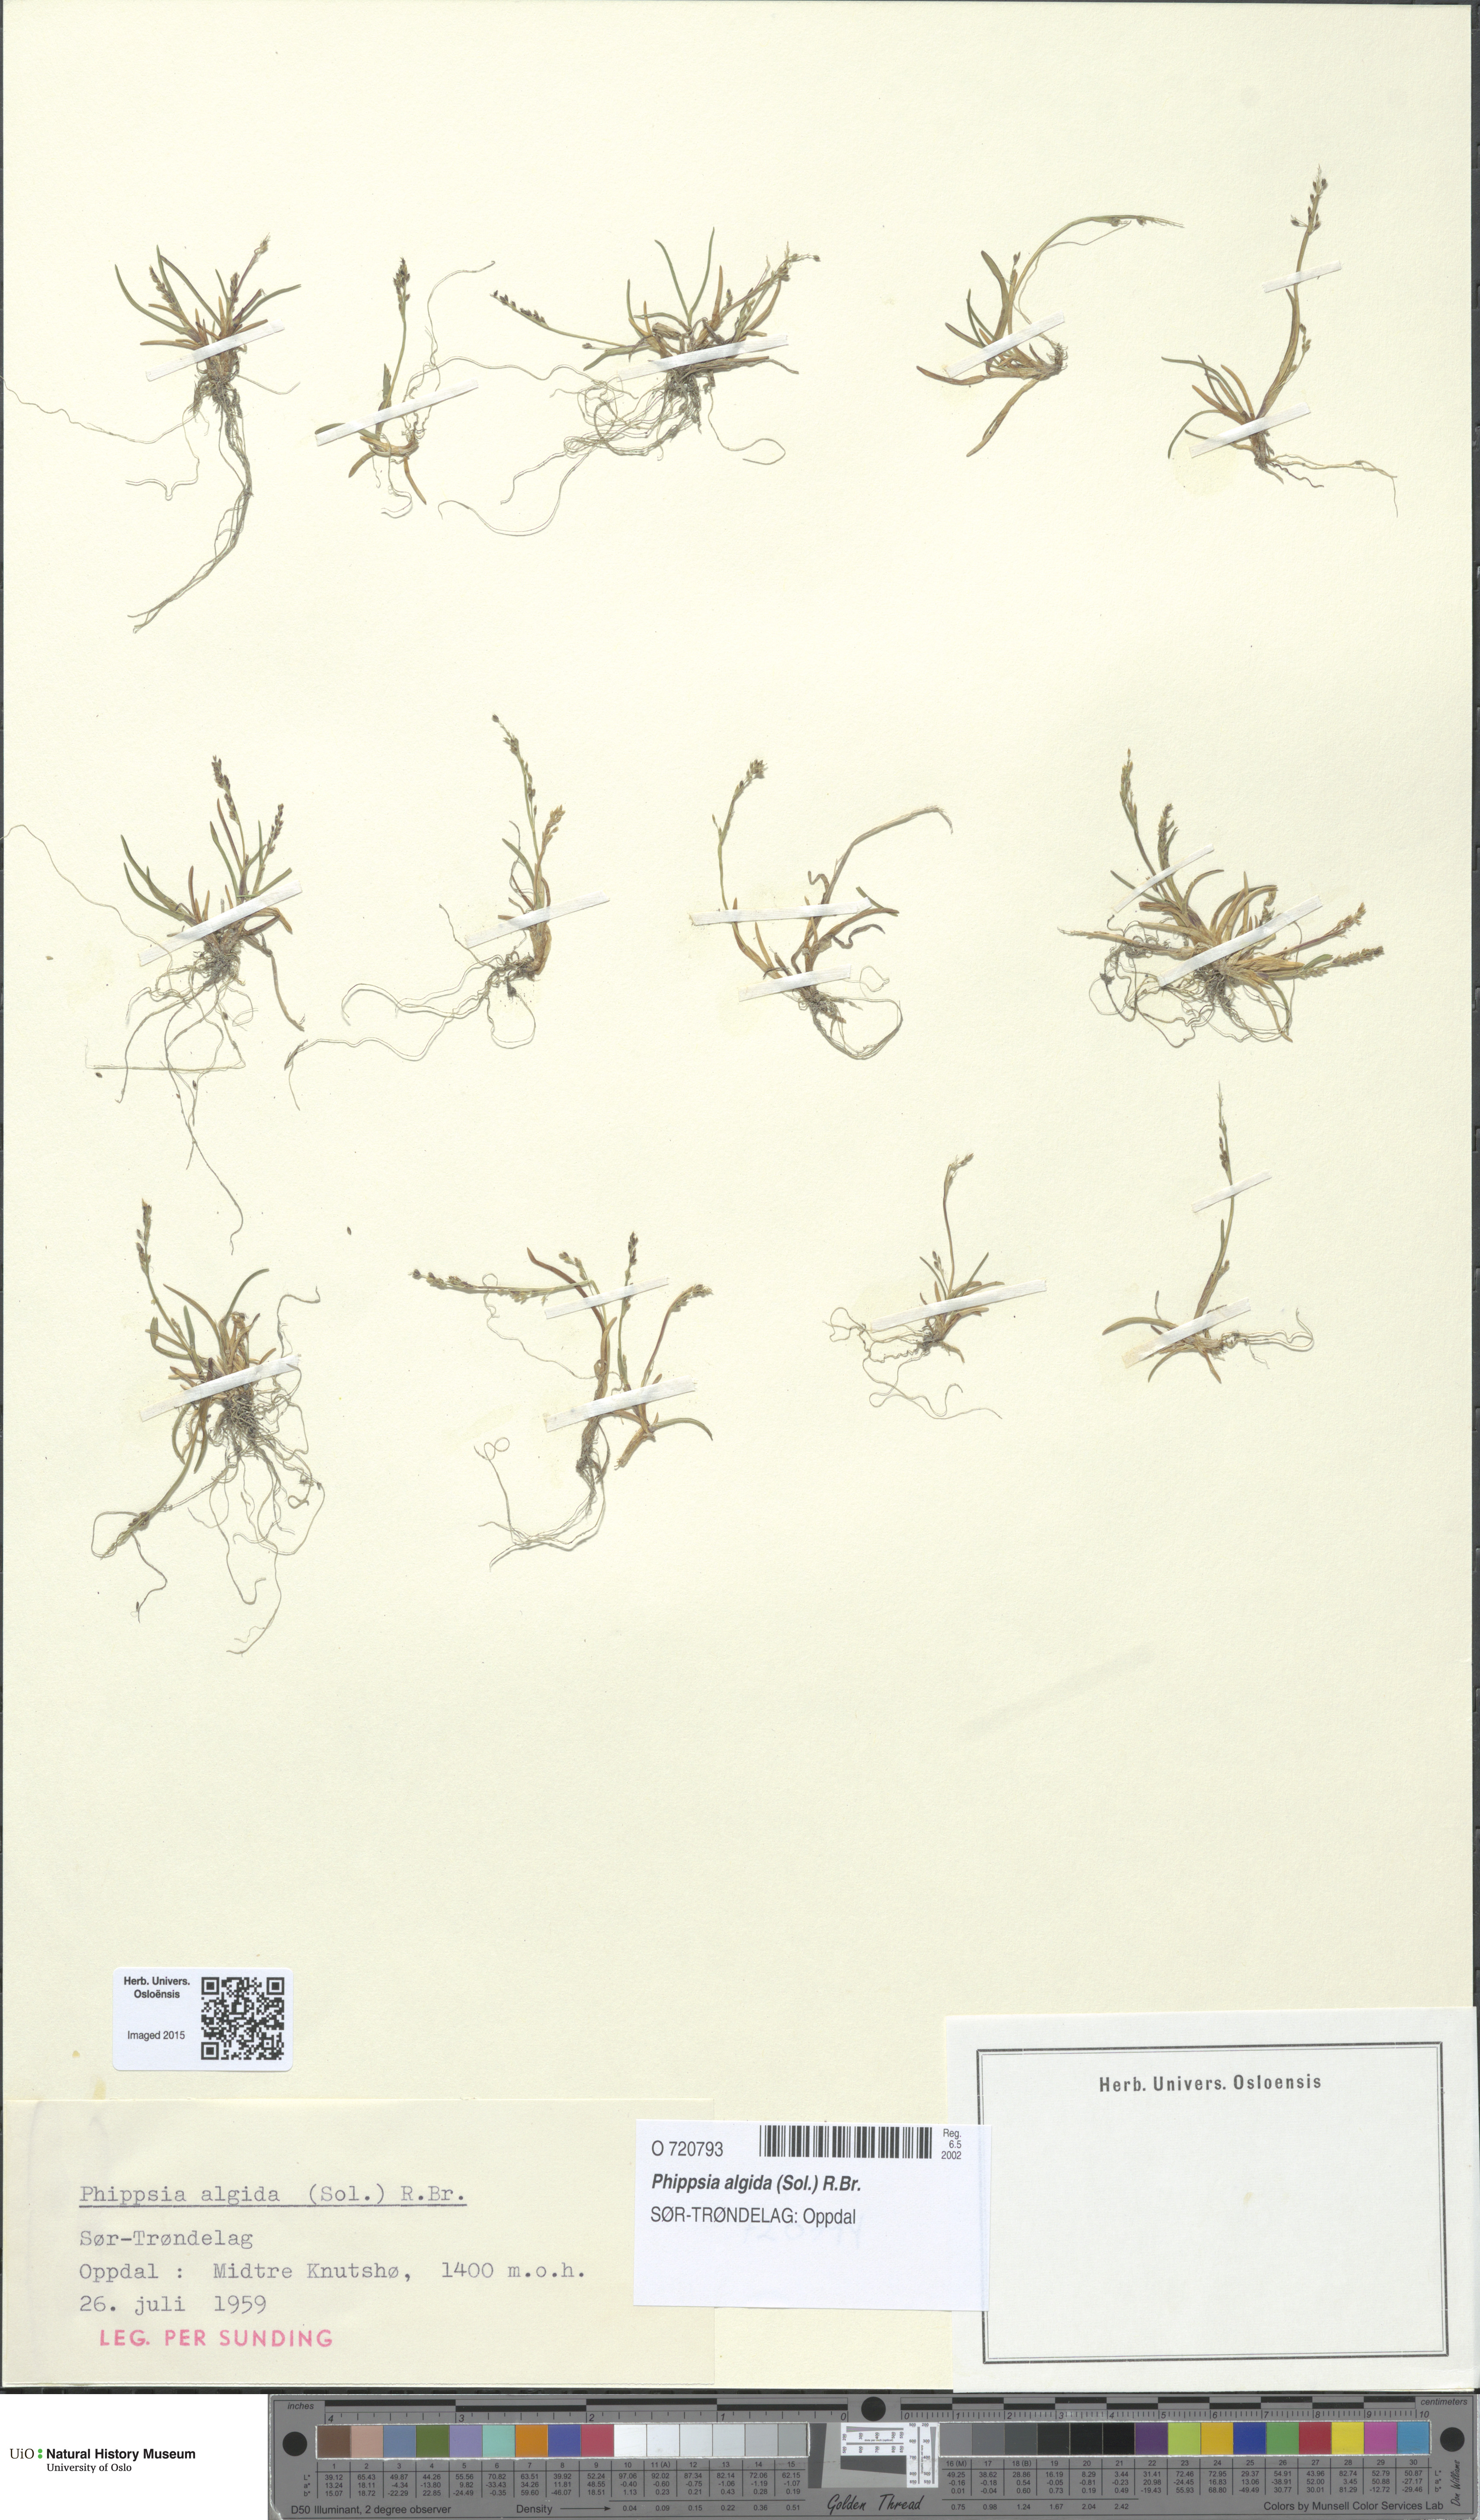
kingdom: Plantae
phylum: Tracheophyta
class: Liliopsida
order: Poales
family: Poaceae
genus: Phippsia
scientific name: Phippsia algida
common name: Ice grass
